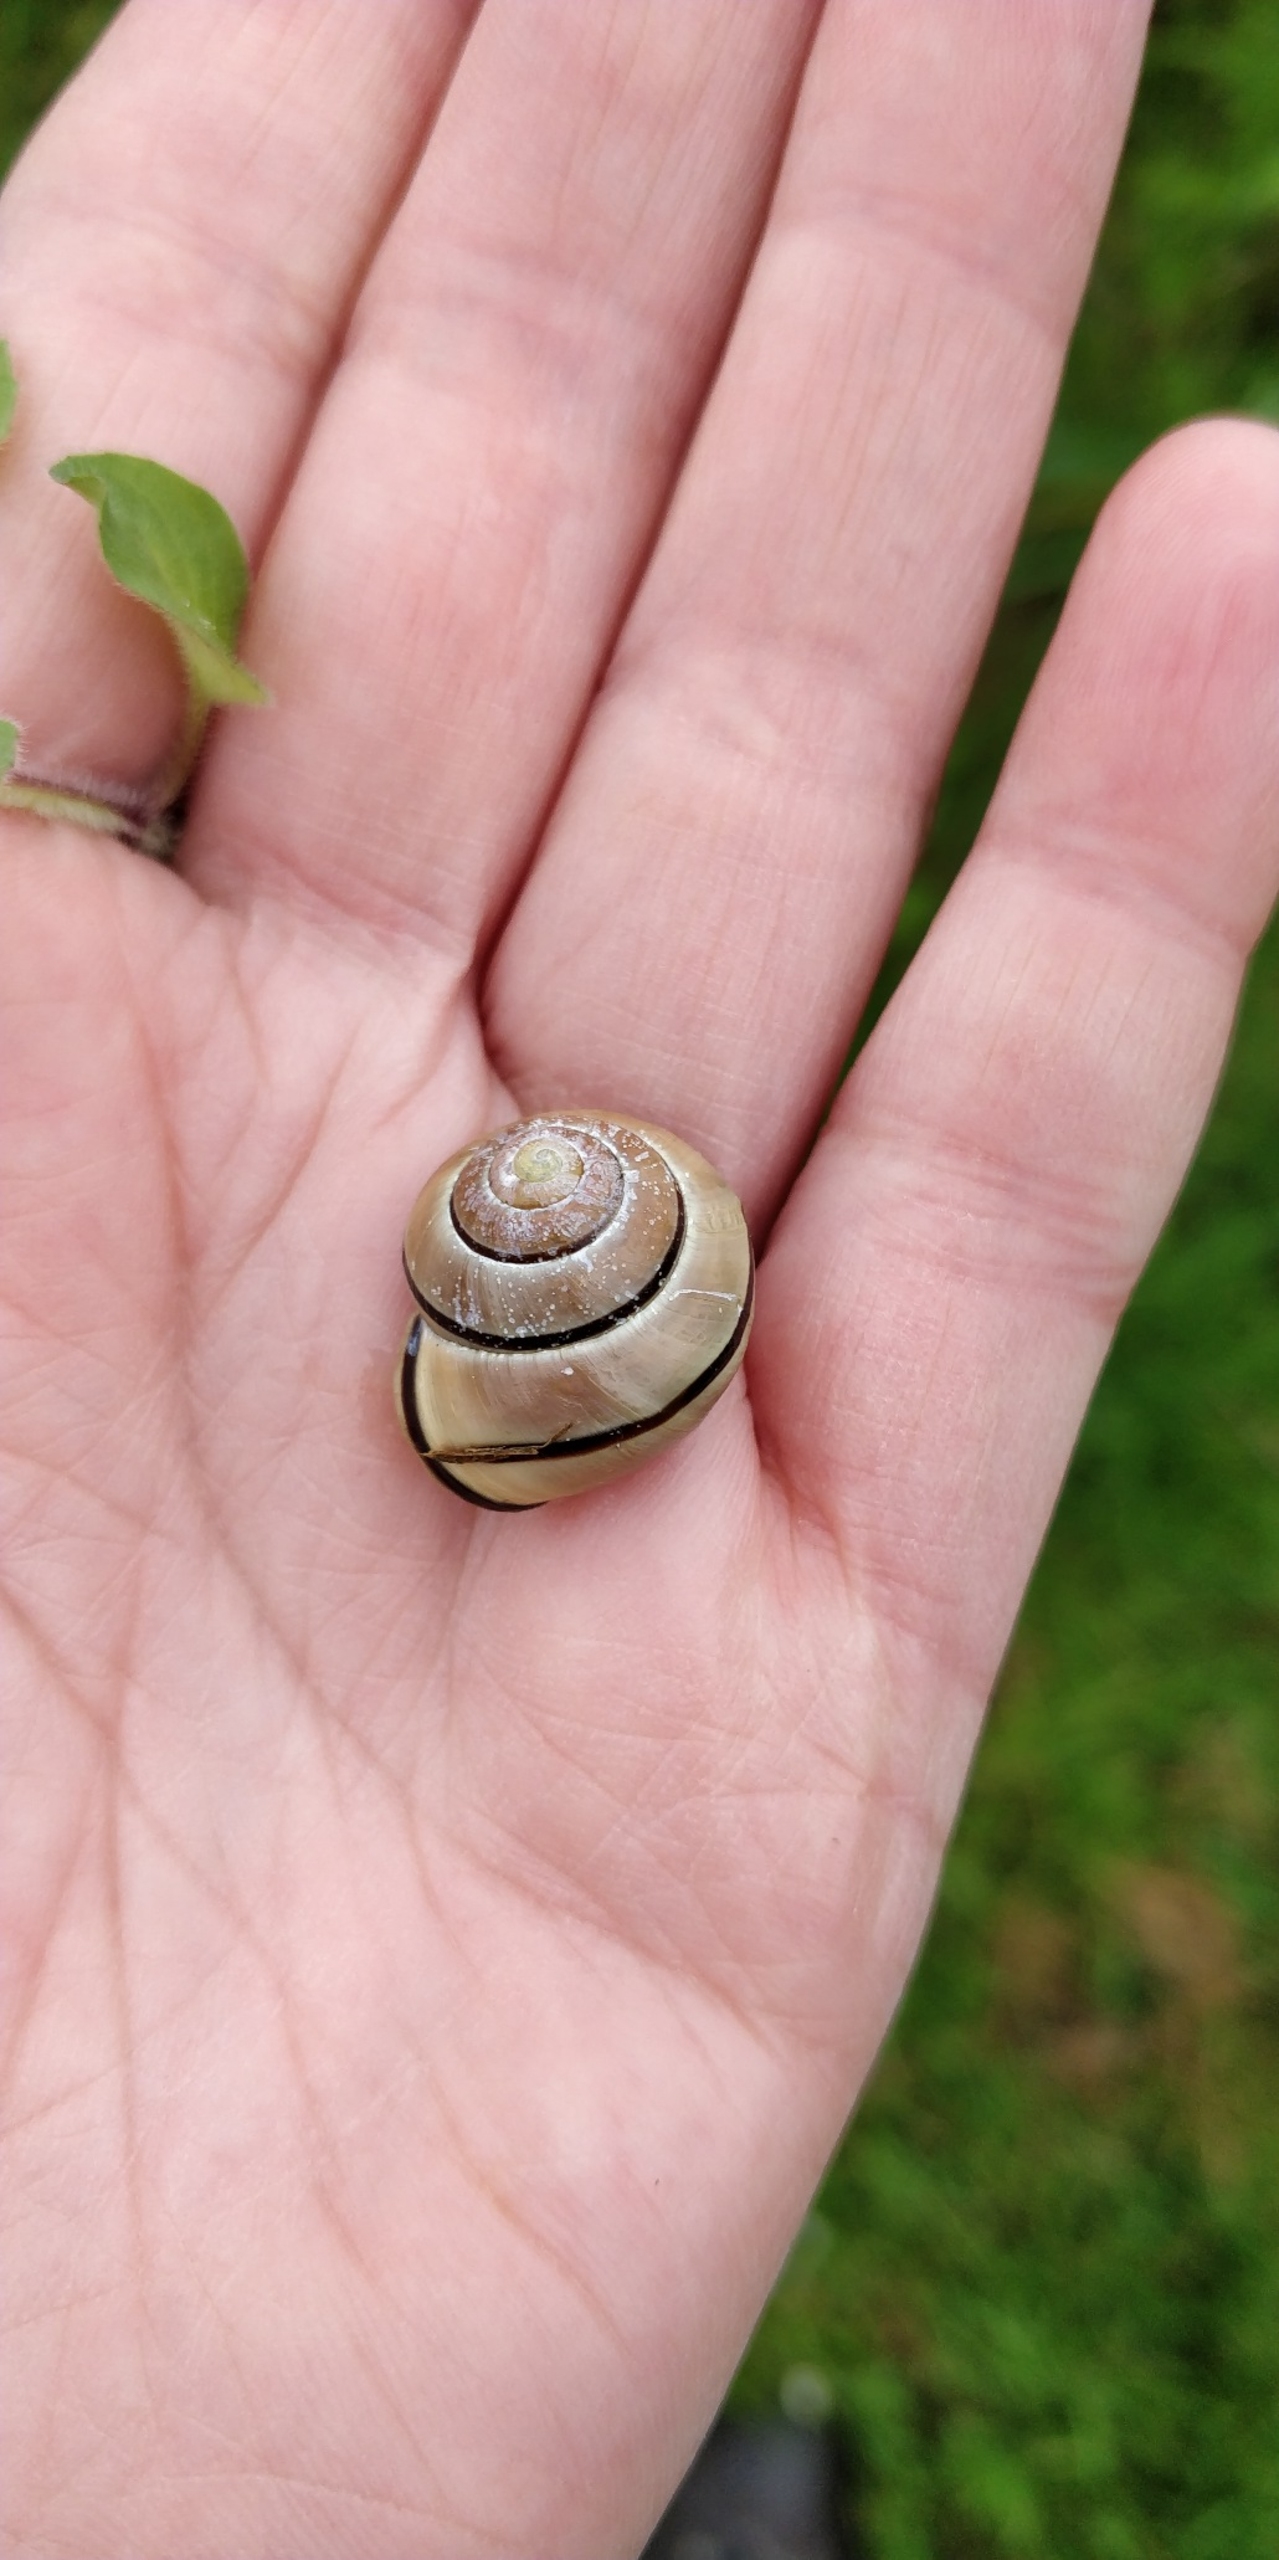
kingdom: Animalia
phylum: Mollusca
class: Gastropoda
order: Stylommatophora
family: Helicidae
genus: Cepaea
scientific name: Cepaea nemoralis
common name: Lundsnegl
